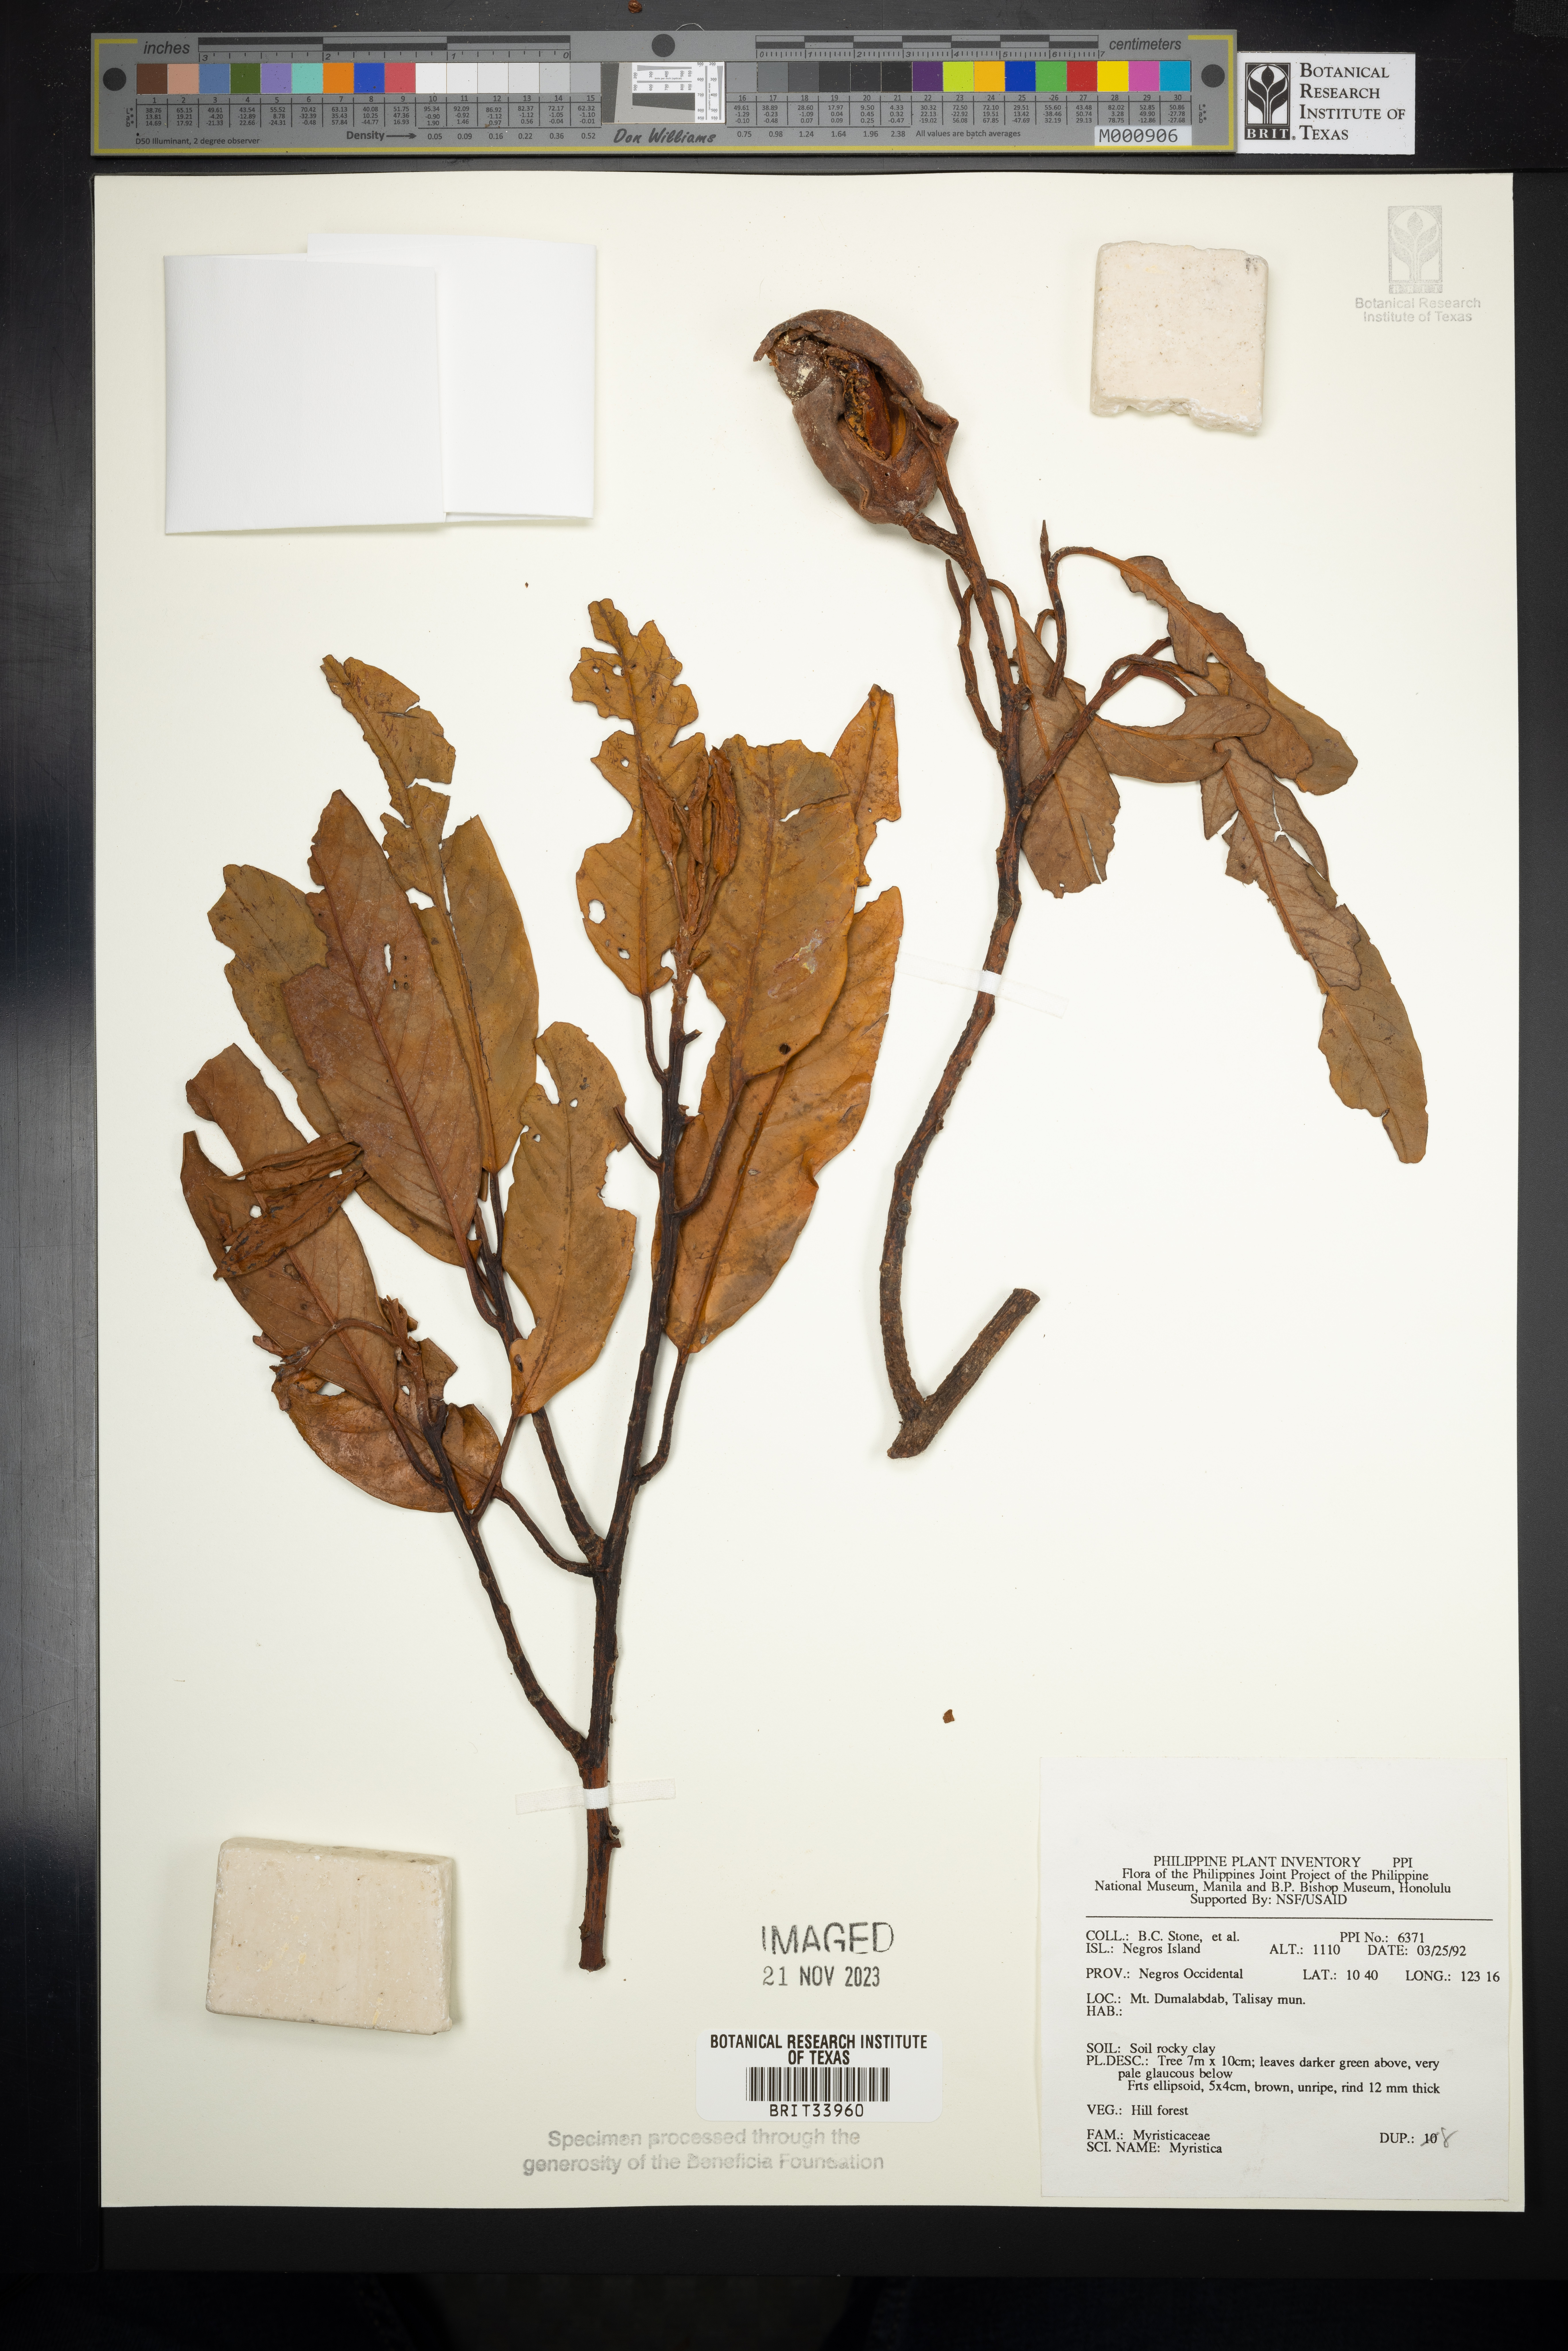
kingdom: Plantae
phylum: Tracheophyta
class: Magnoliopsida
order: Magnoliales
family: Myristicaceae
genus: Myristica
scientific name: Myristica
